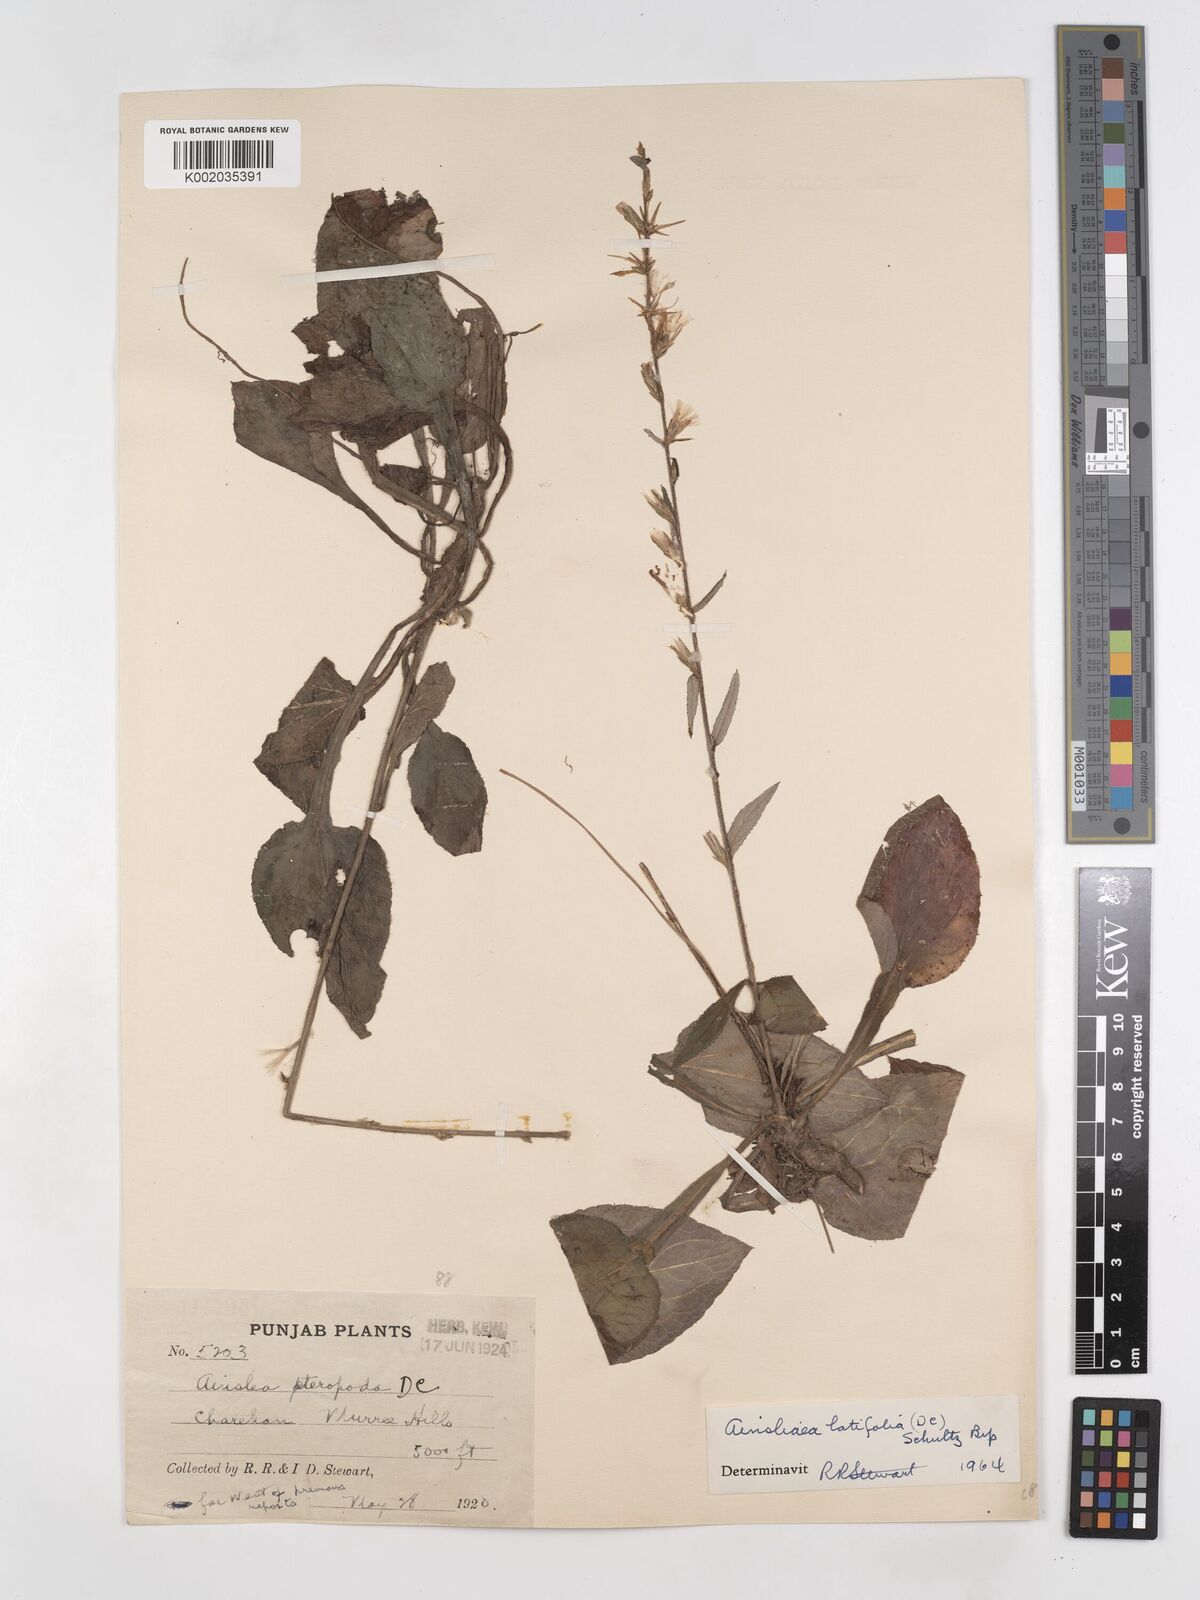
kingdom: Plantae
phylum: Tracheophyta
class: Magnoliopsida
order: Asterales
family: Asteraceae
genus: Ainsliaea
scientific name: Ainsliaea latifolia
